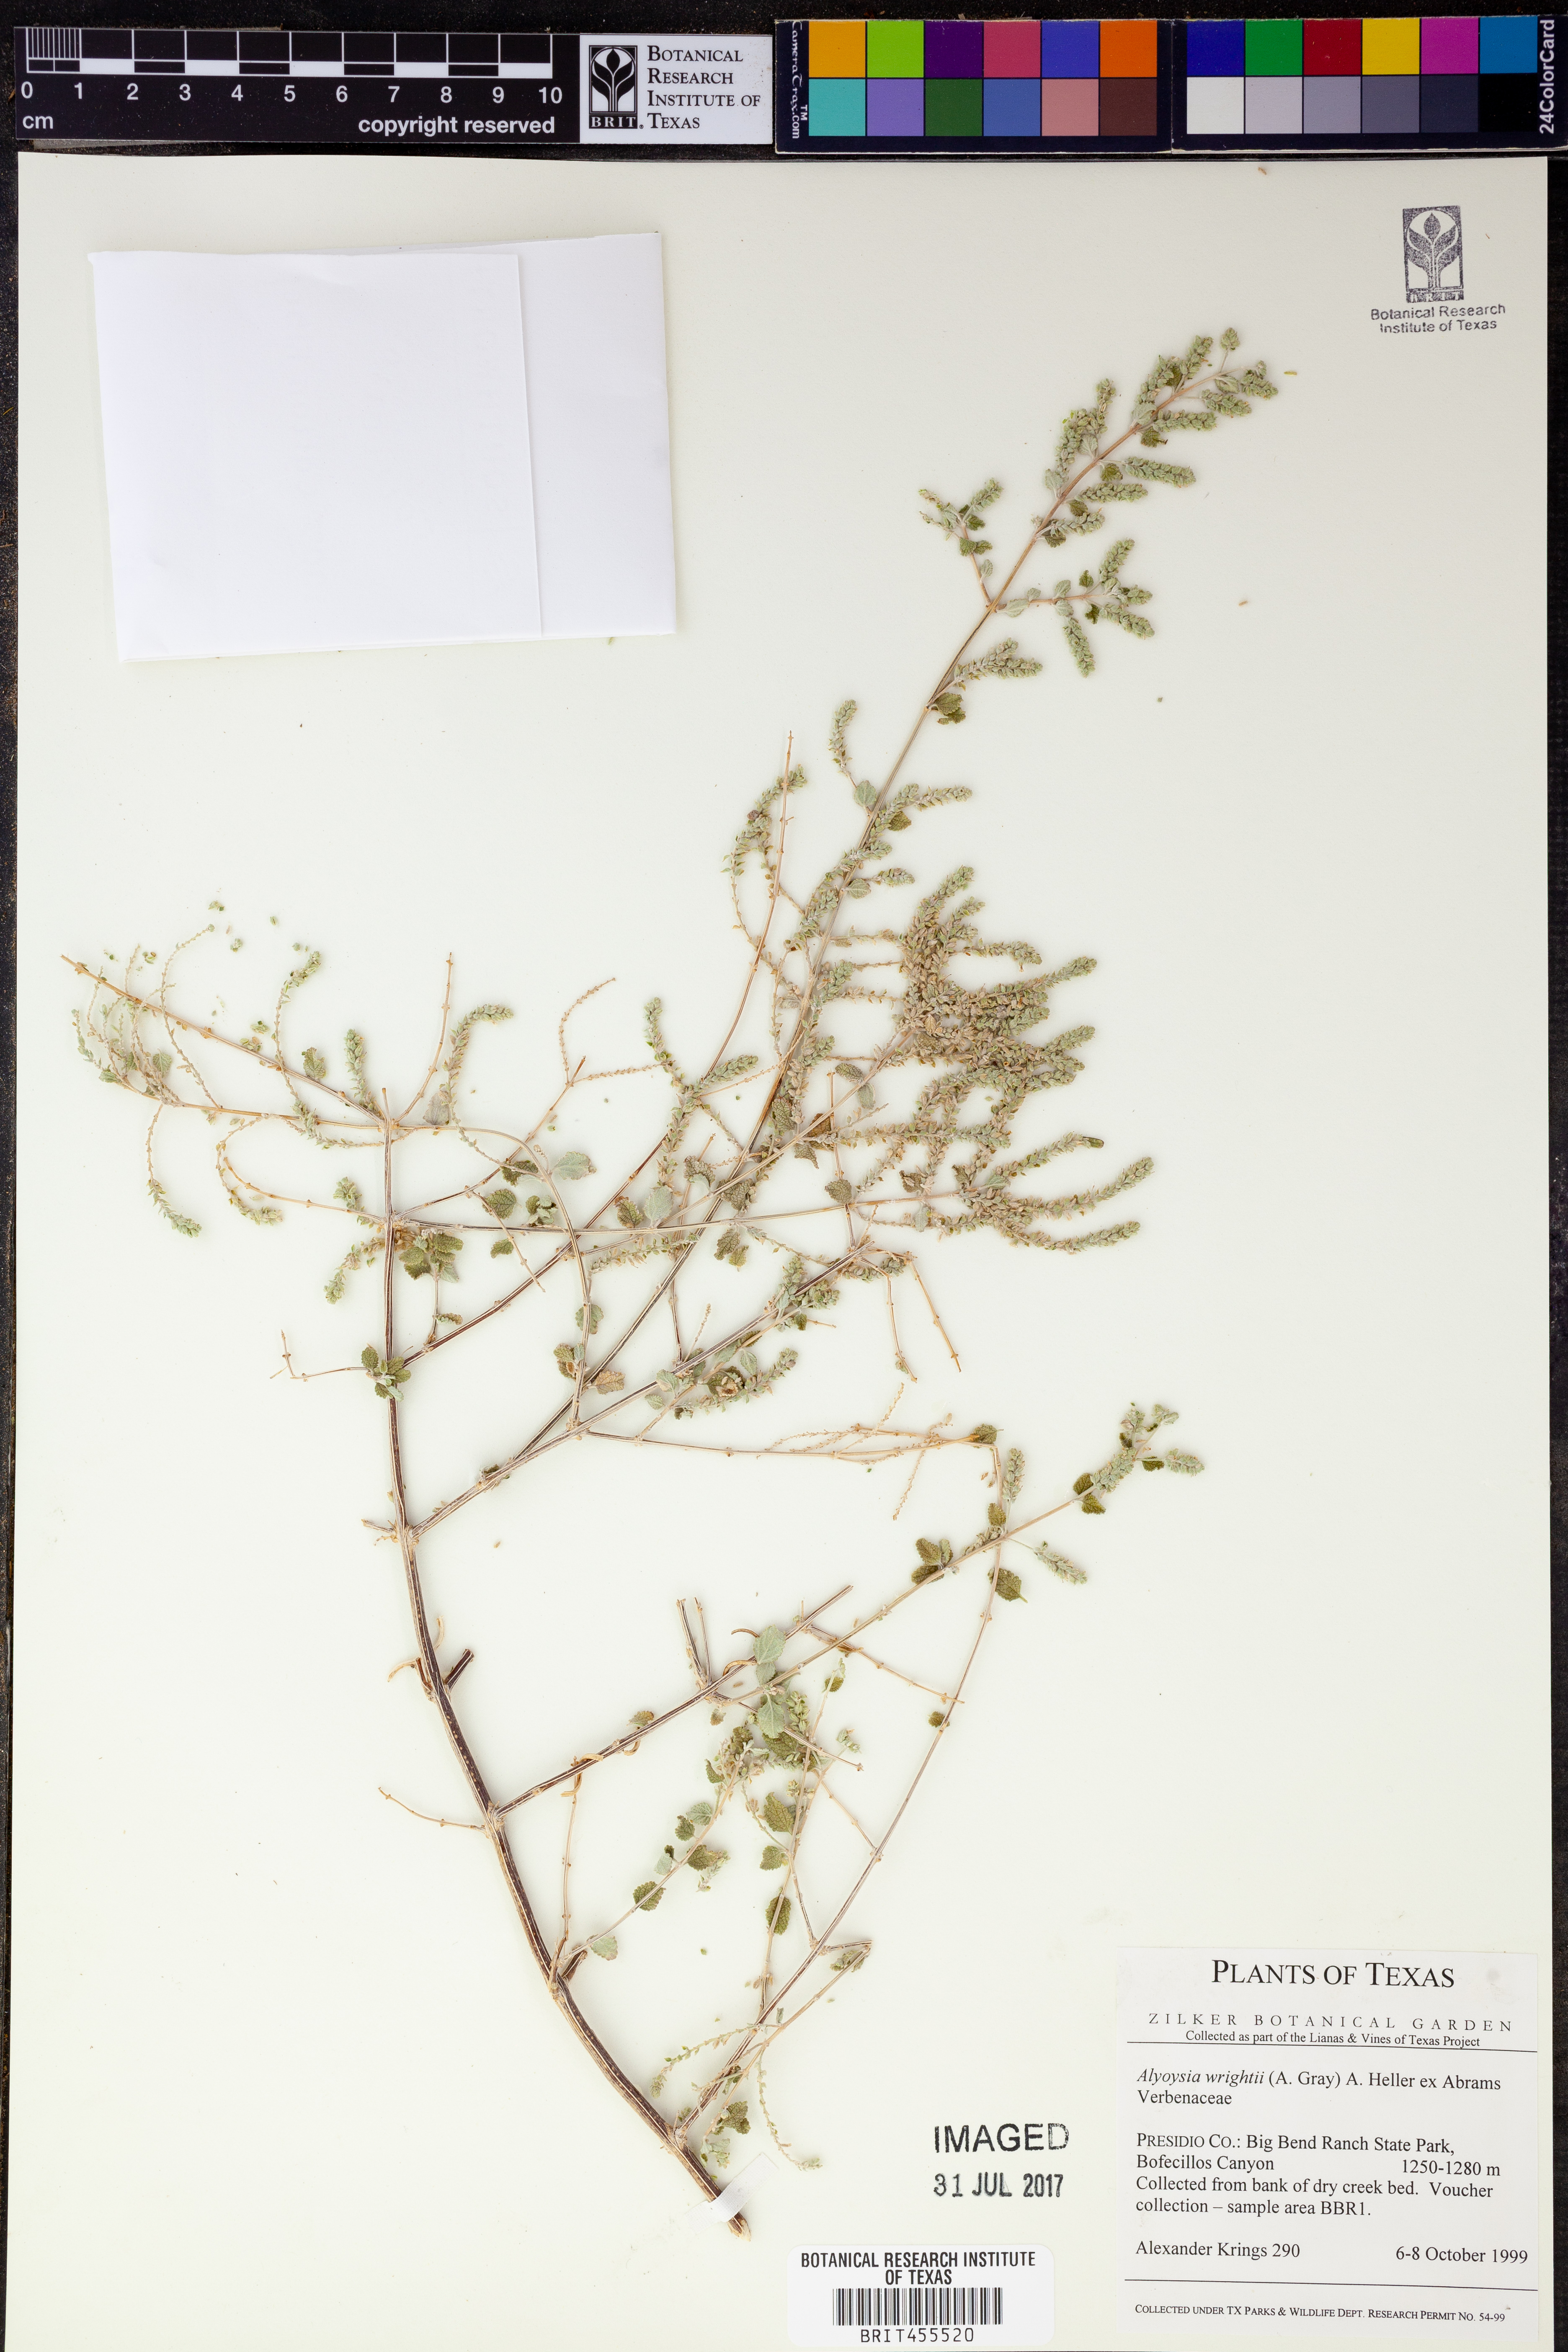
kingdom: Plantae
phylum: Tracheophyta
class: Magnoliopsida
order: Lamiales
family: Verbenaceae
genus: Aloysia
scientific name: Aloysia wrightii
